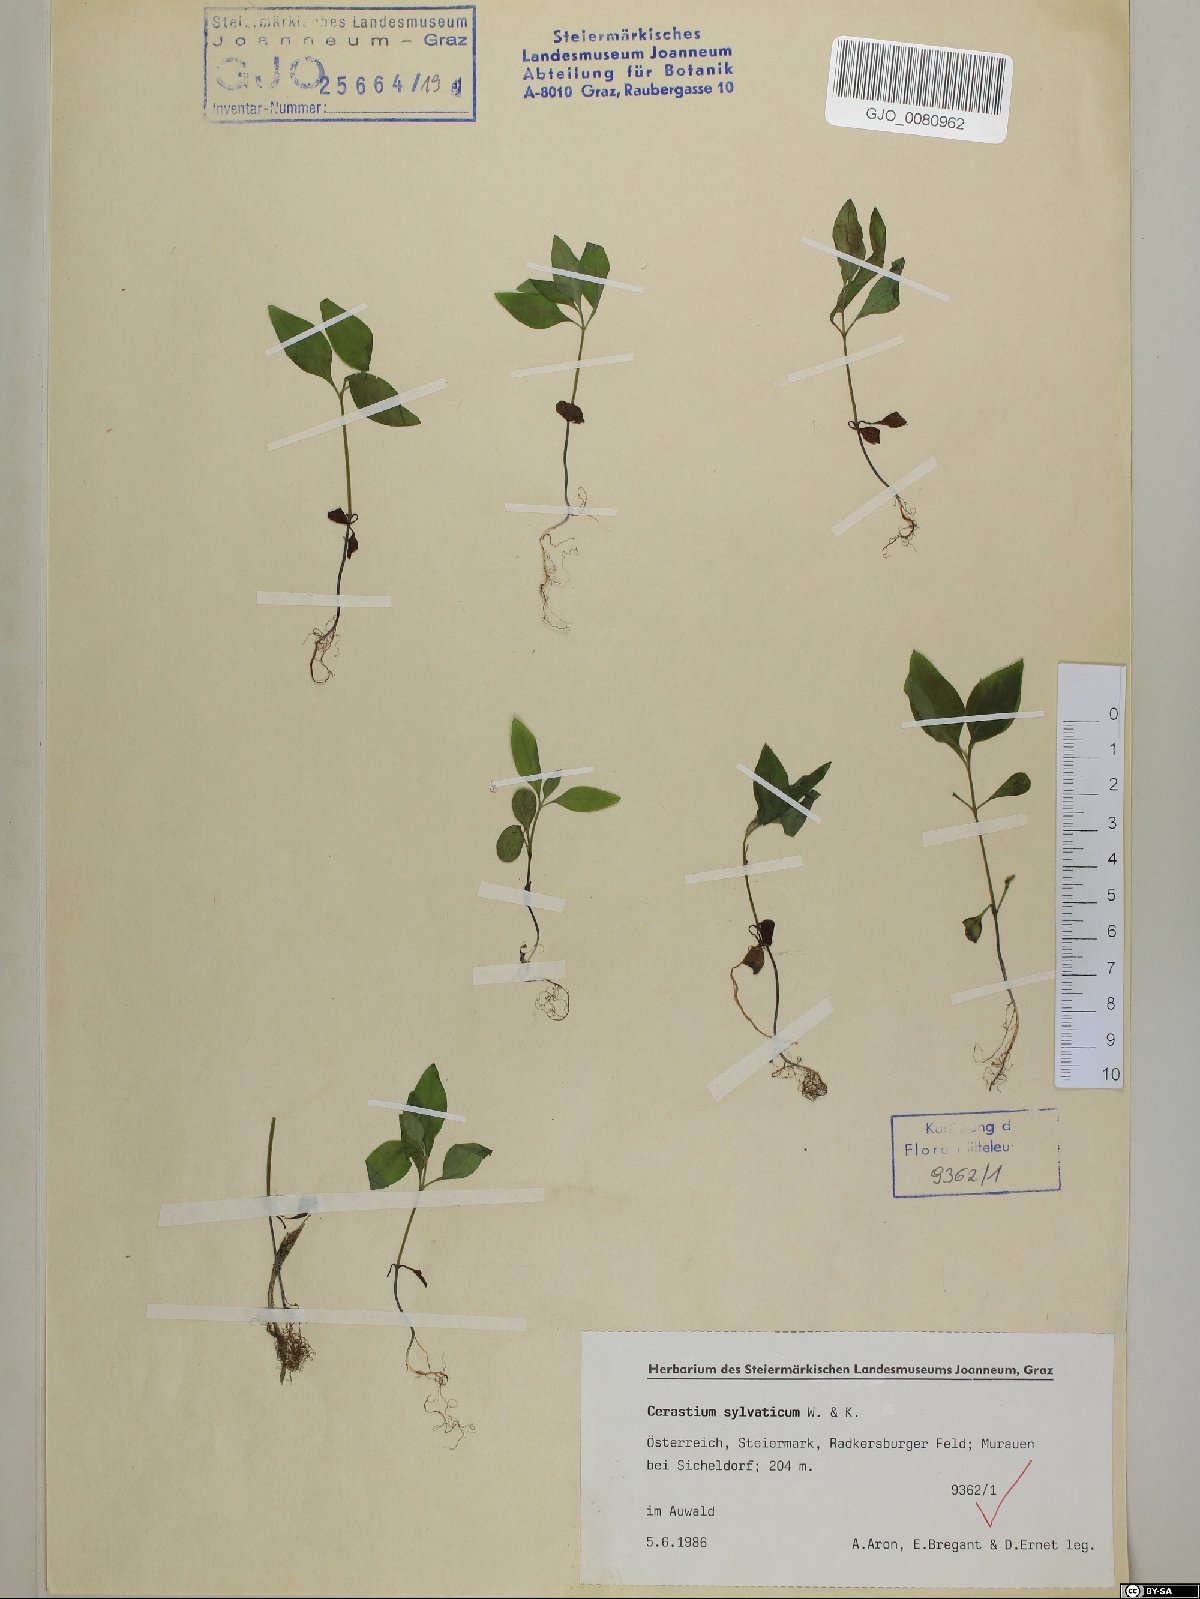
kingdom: Plantae
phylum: Tracheophyta
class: Magnoliopsida
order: Caryophyllales
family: Caryophyllaceae
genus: Cerastium
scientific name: Cerastium sylvaticum
